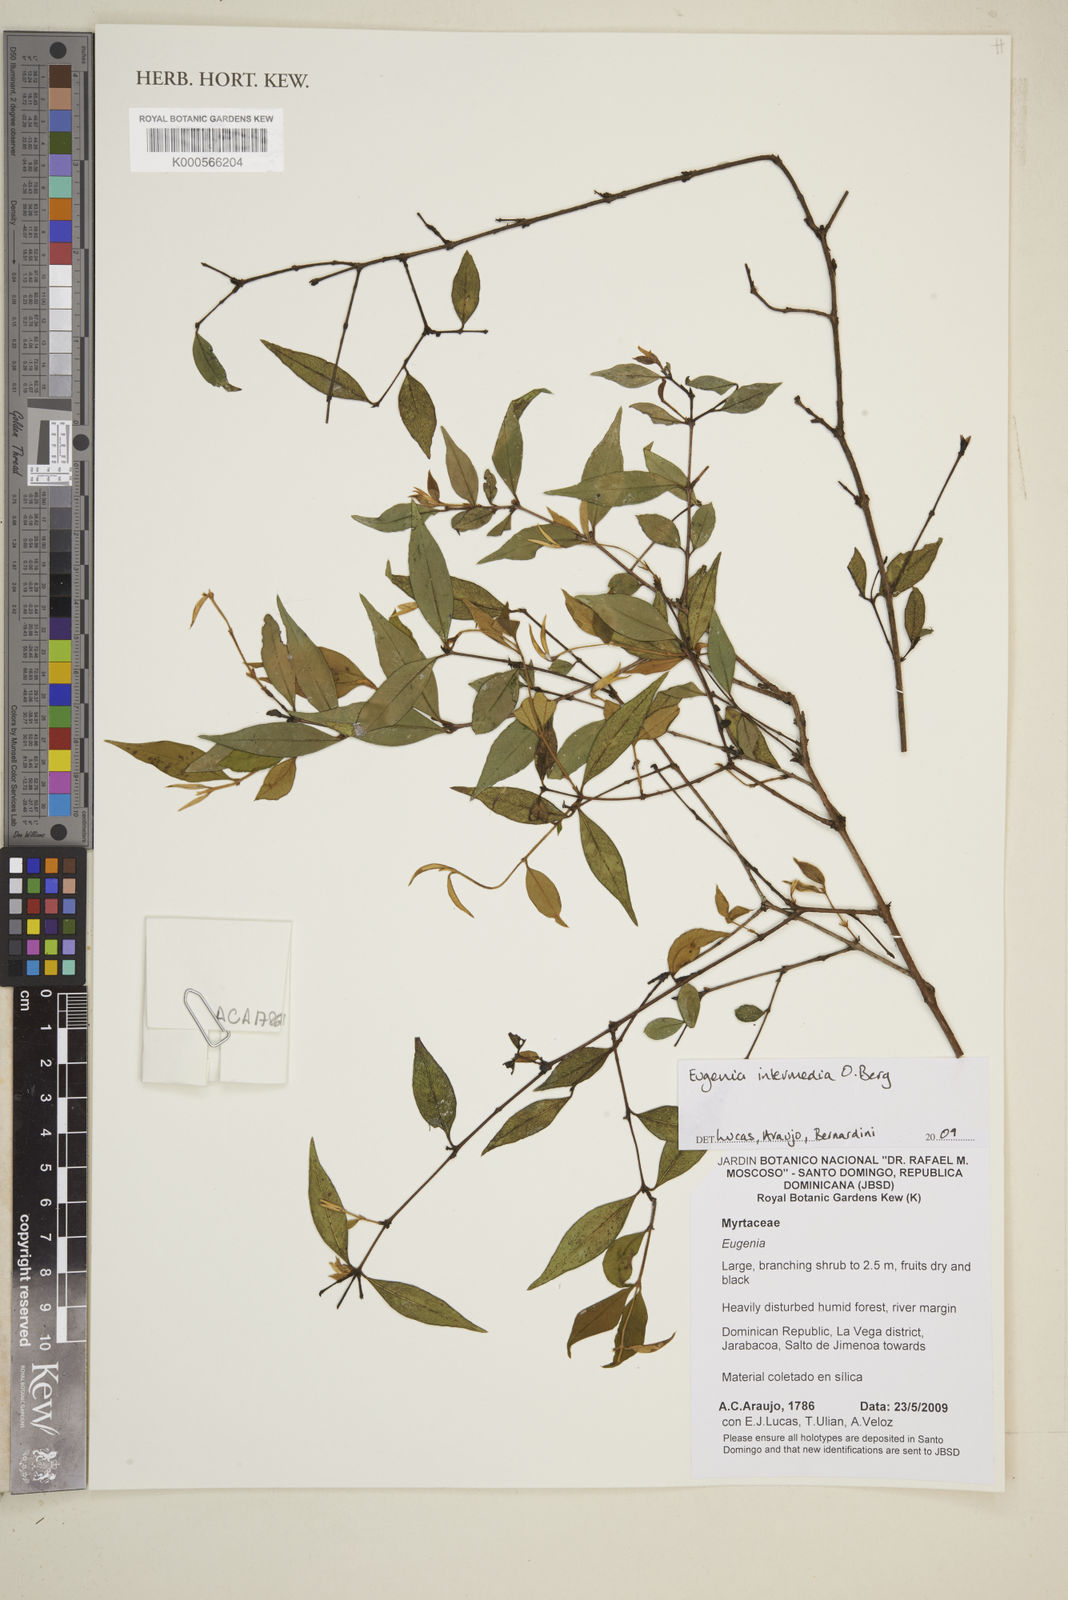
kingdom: Plantae
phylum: Tracheophyta
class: Magnoliopsida
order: Myrtales
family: Myrtaceae
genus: Eugenia
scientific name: Eugenia intermedia
